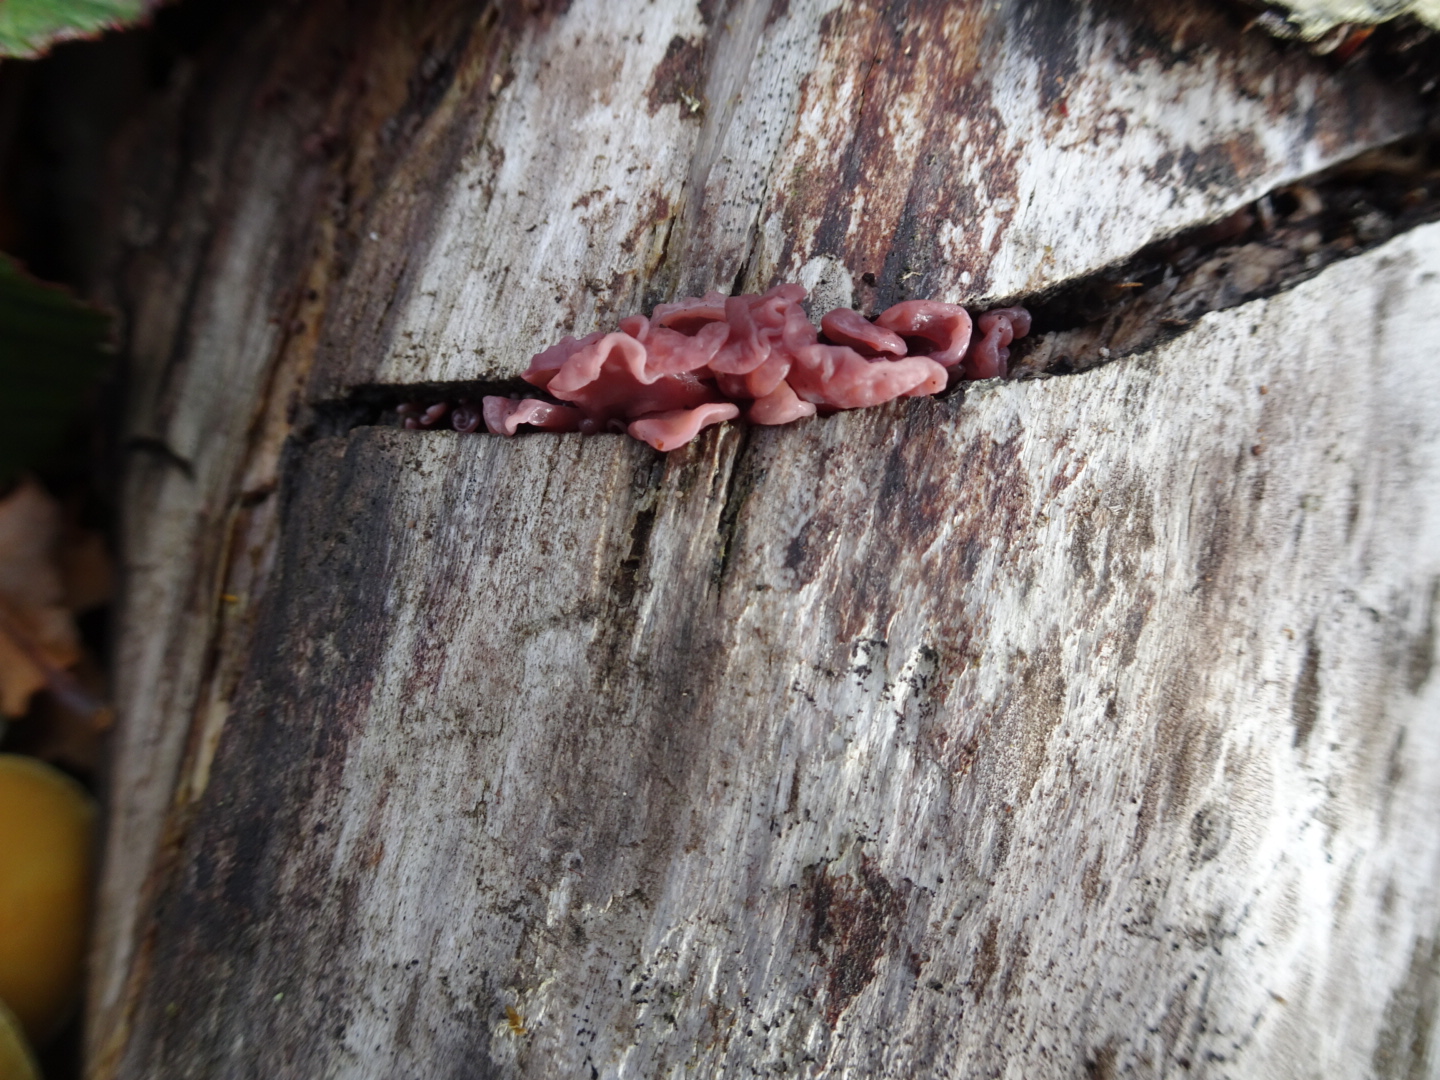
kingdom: Fungi
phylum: Ascomycota
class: Leotiomycetes
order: Helotiales
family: Gelatinodiscaceae
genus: Ascocoryne
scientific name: Ascocoryne sarcoides
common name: rødlilla sejskive
